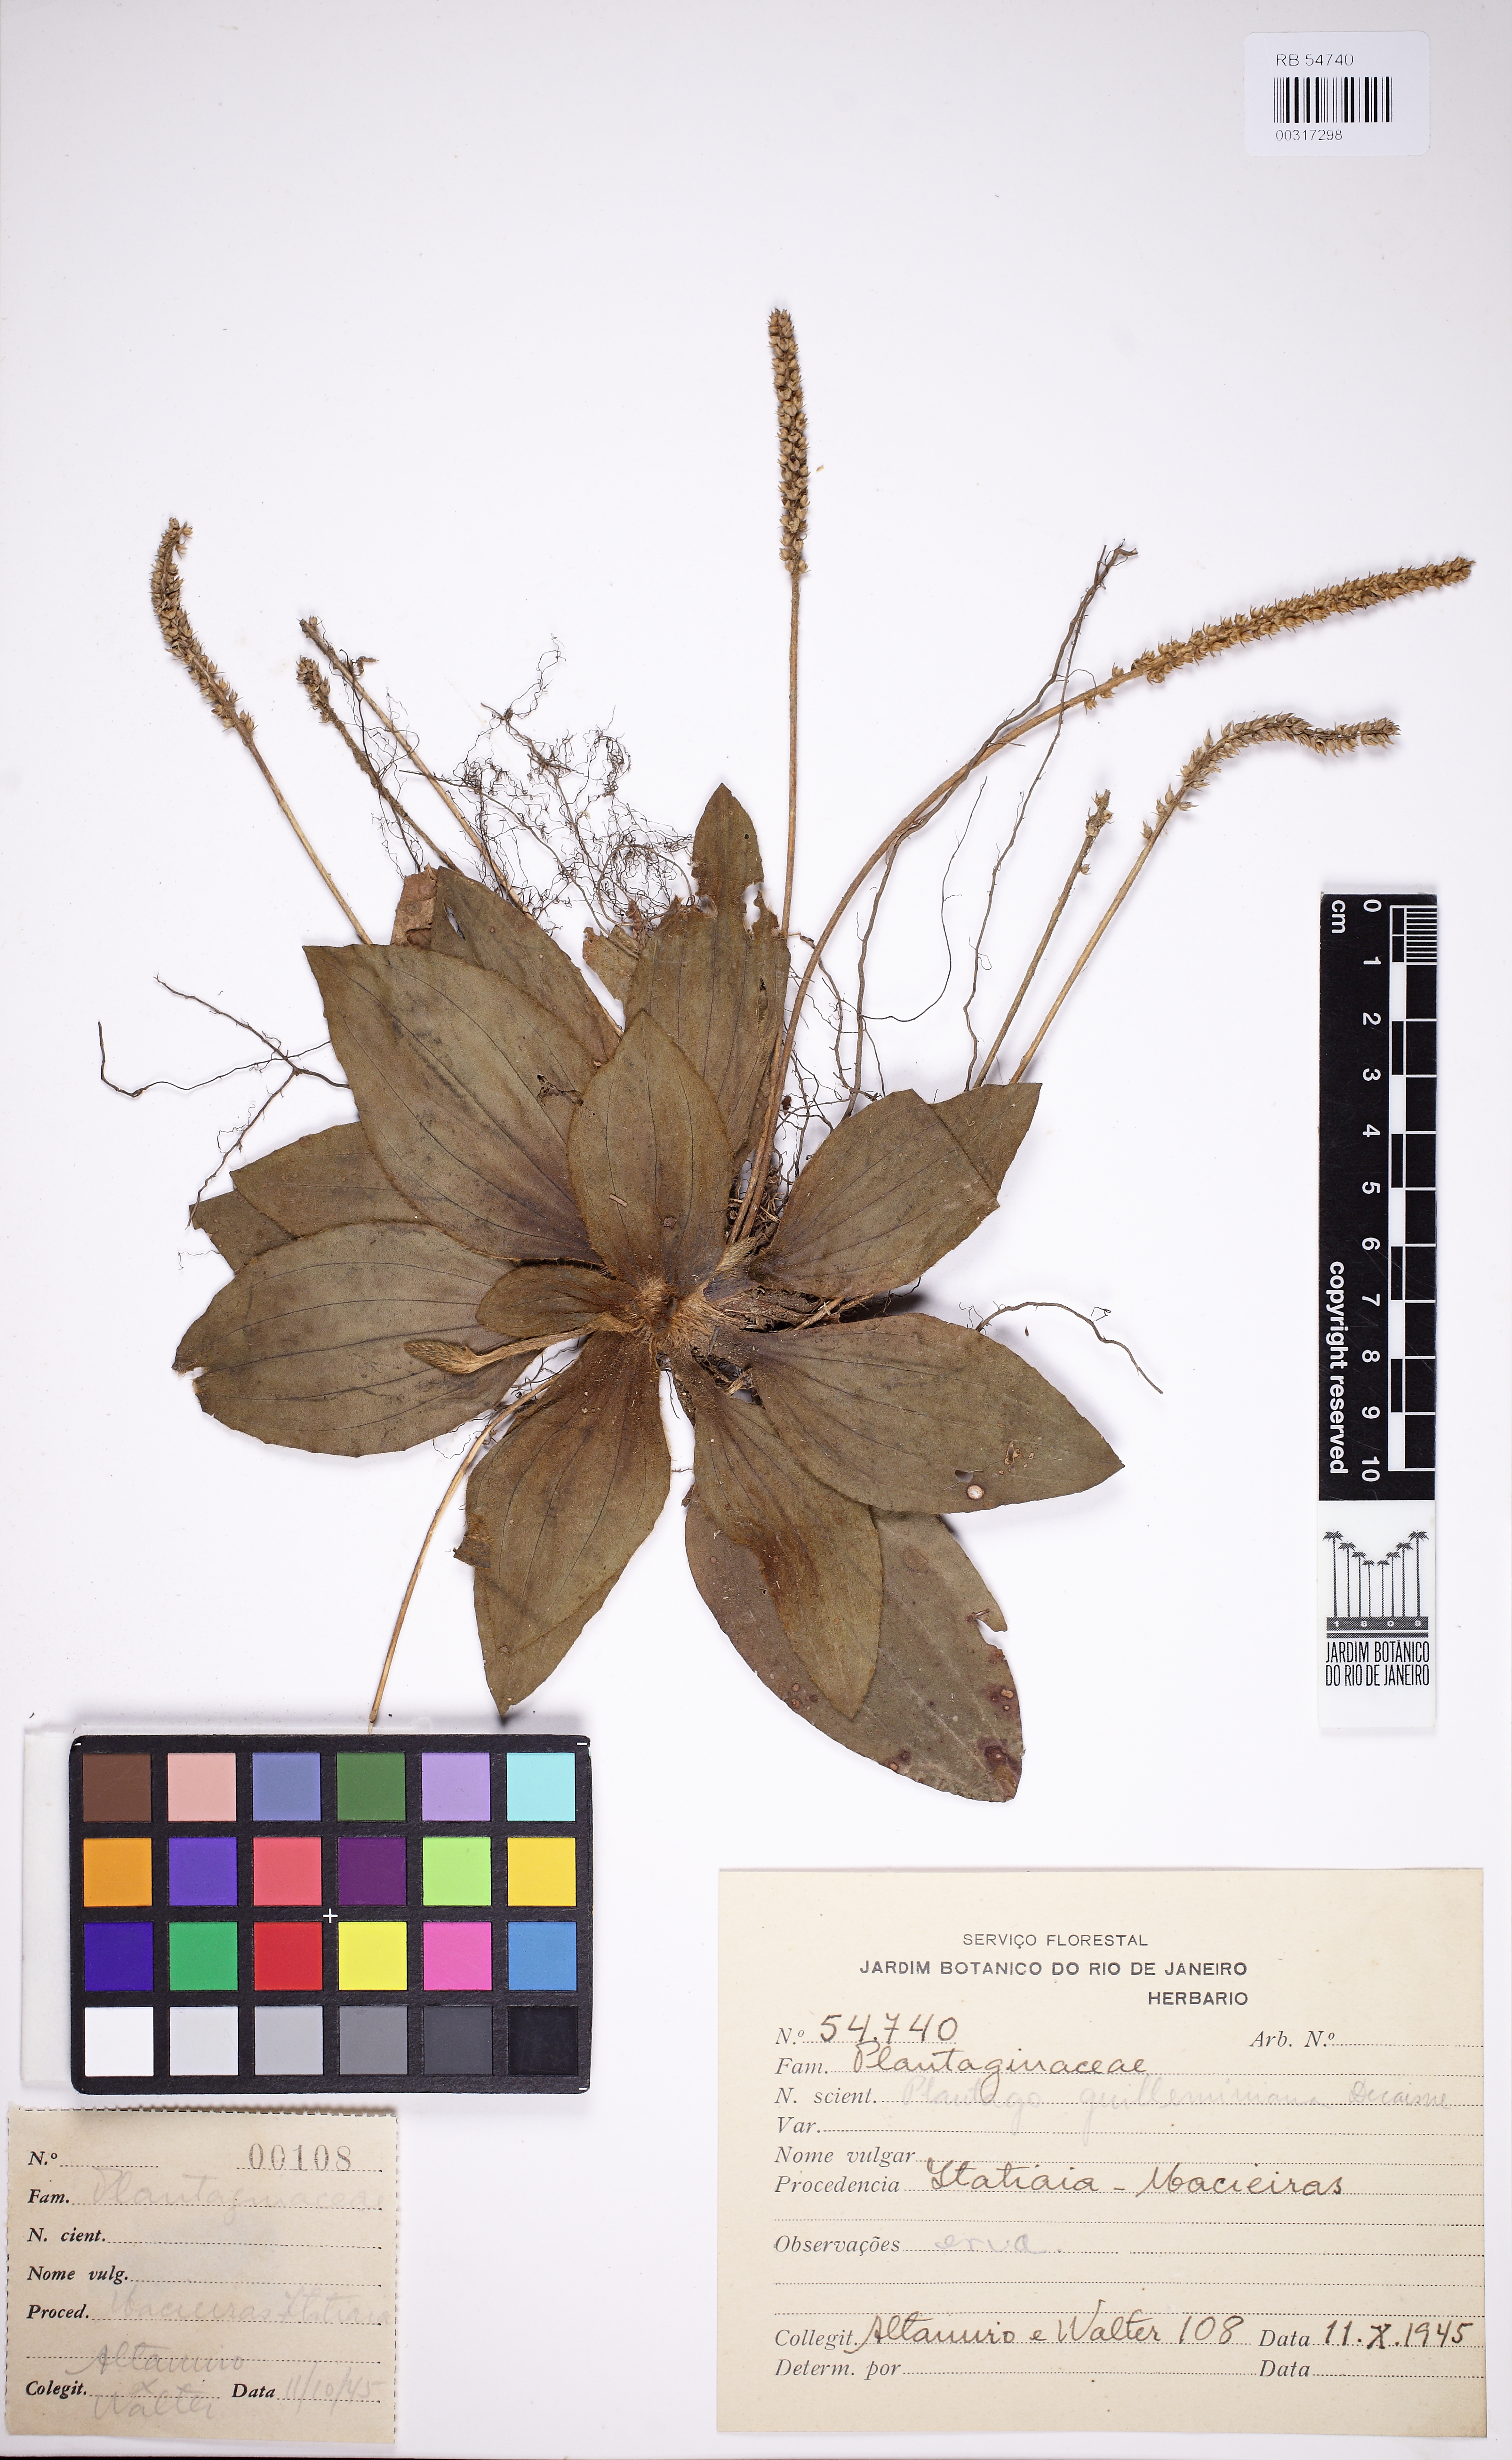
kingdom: Plantae
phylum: Tracheophyta
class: Magnoliopsida
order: Lamiales
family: Plantaginaceae
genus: Plantago
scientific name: Plantago guilleminiana
